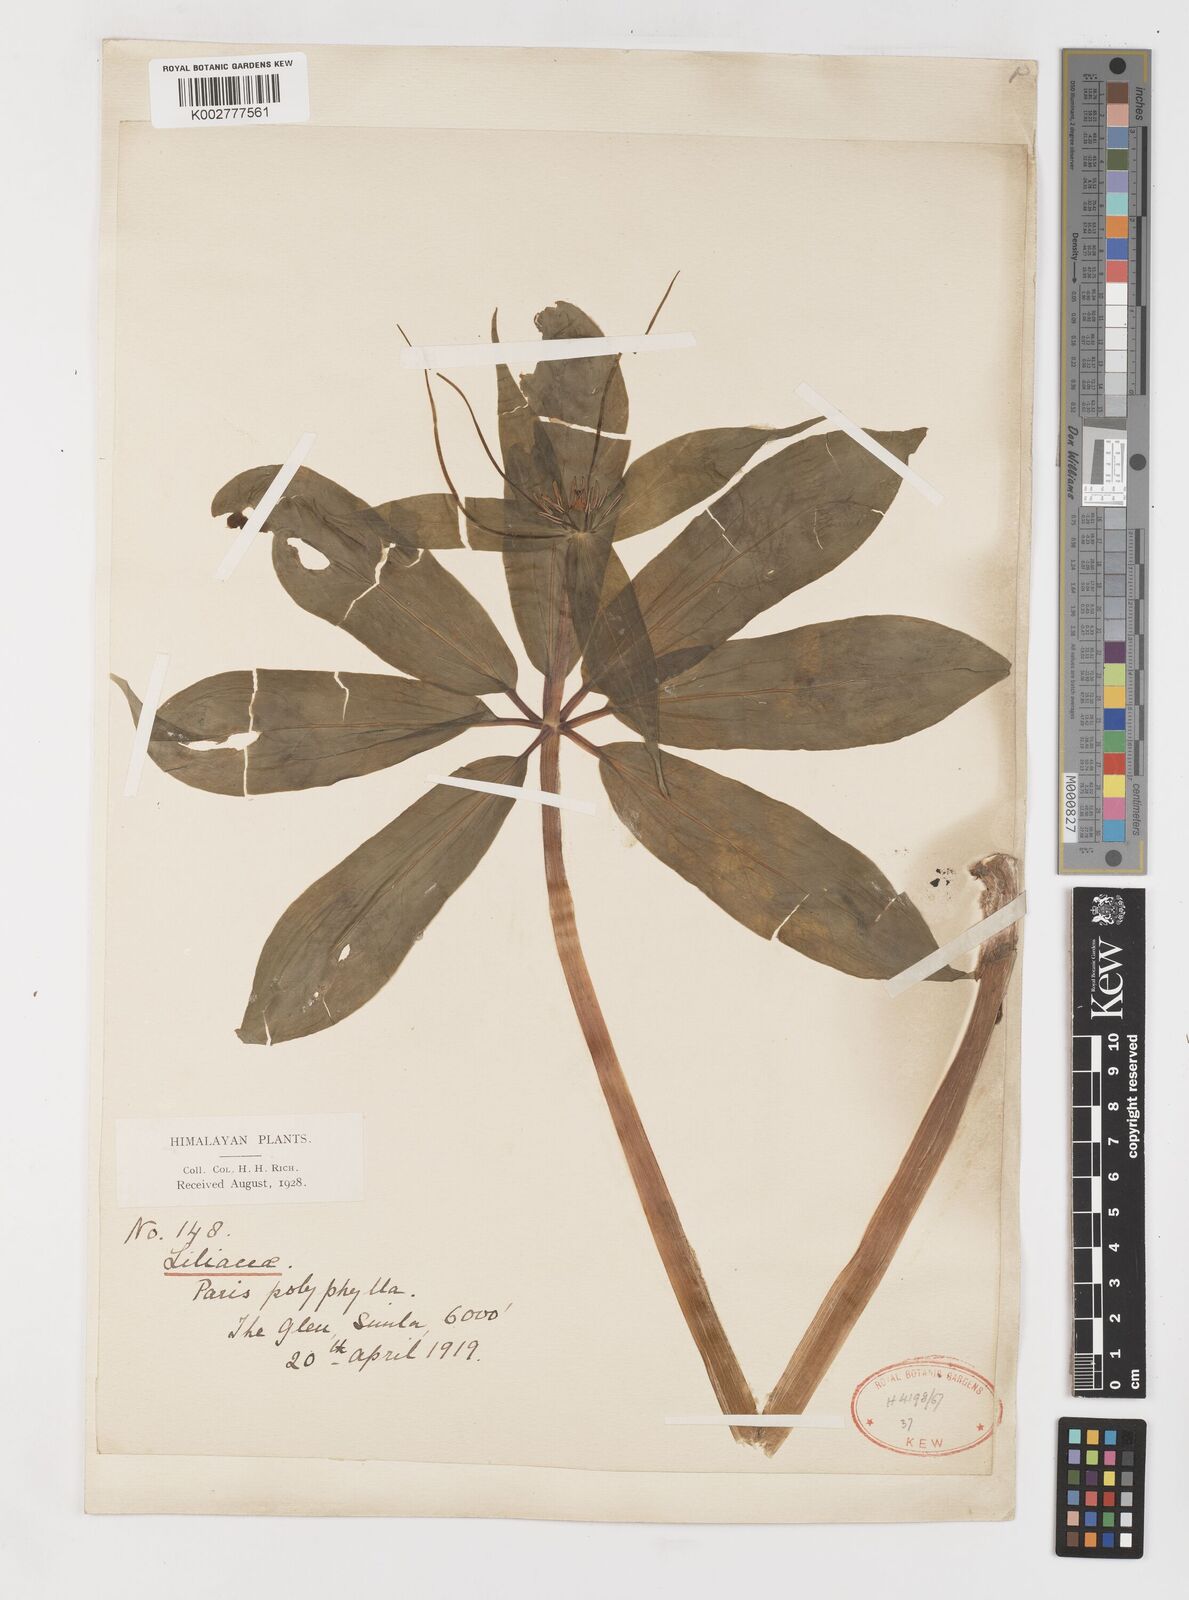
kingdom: Plantae
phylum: Tracheophyta
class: Liliopsida
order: Liliales
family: Melanthiaceae
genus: Paris
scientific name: Paris polyphylla
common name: Love apple
